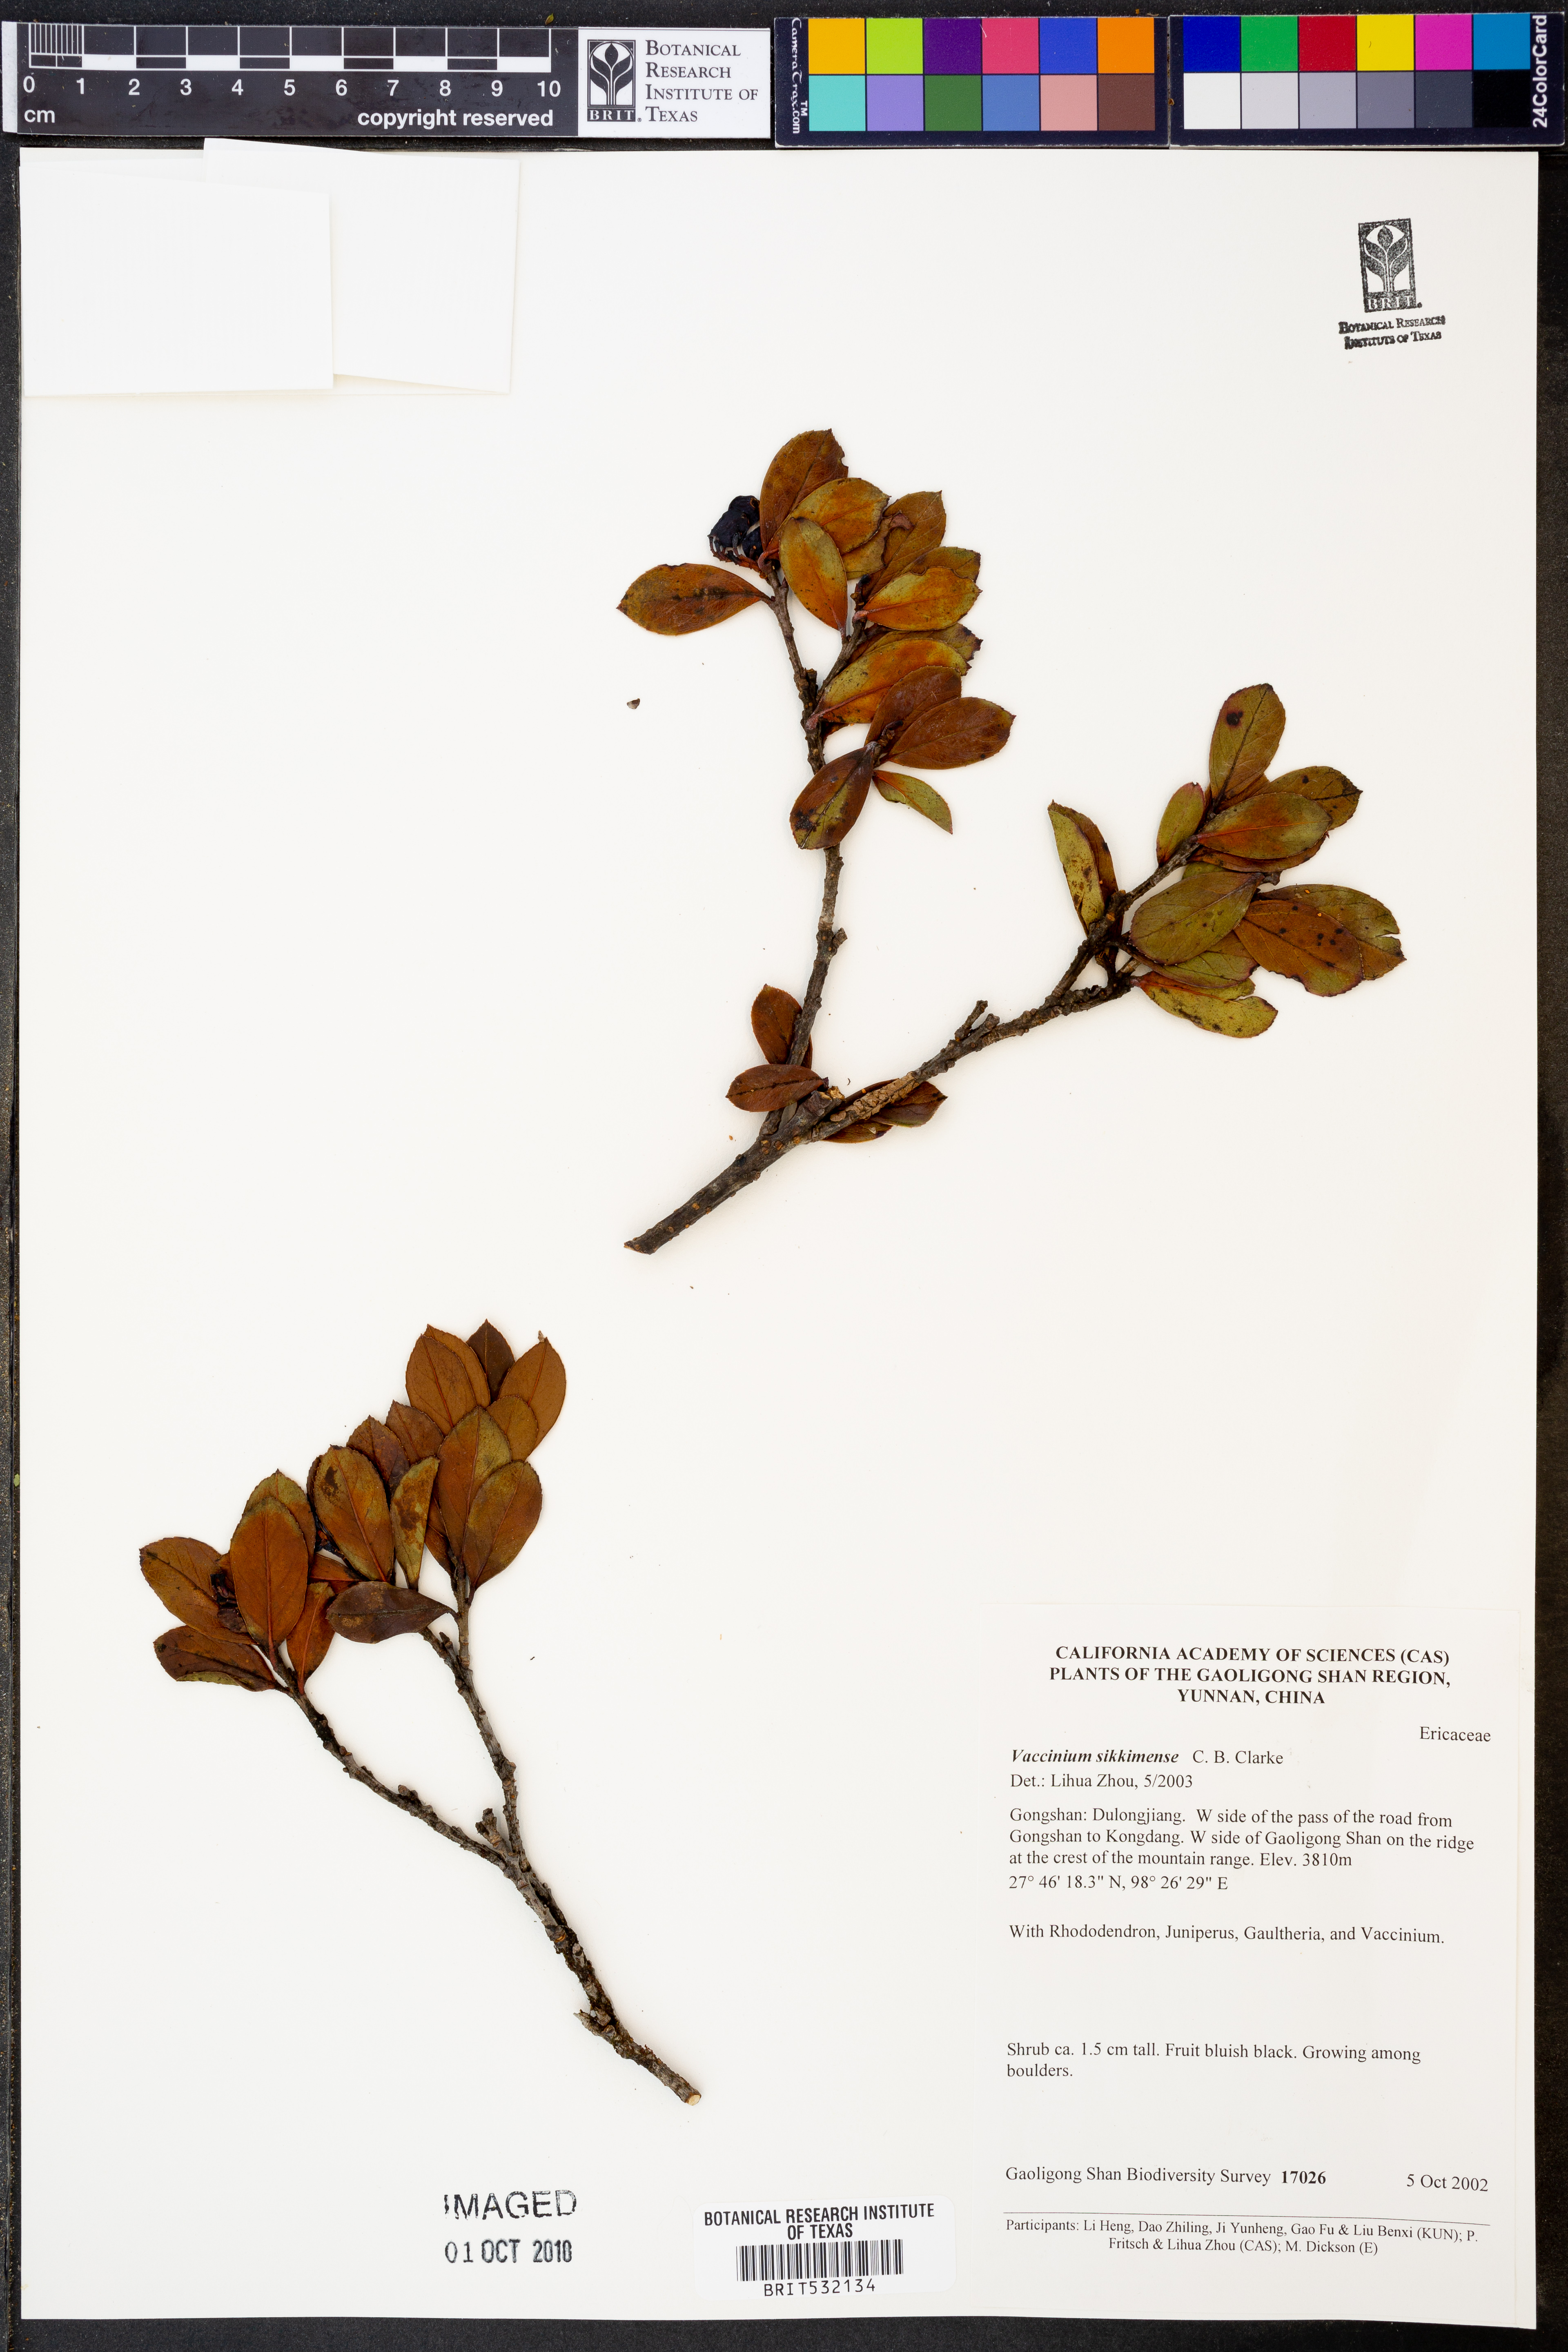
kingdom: Plantae
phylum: Tracheophyta
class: Magnoliopsida
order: Ericales
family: Ericaceae
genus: Vaccinium
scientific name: Vaccinium sikkimense
